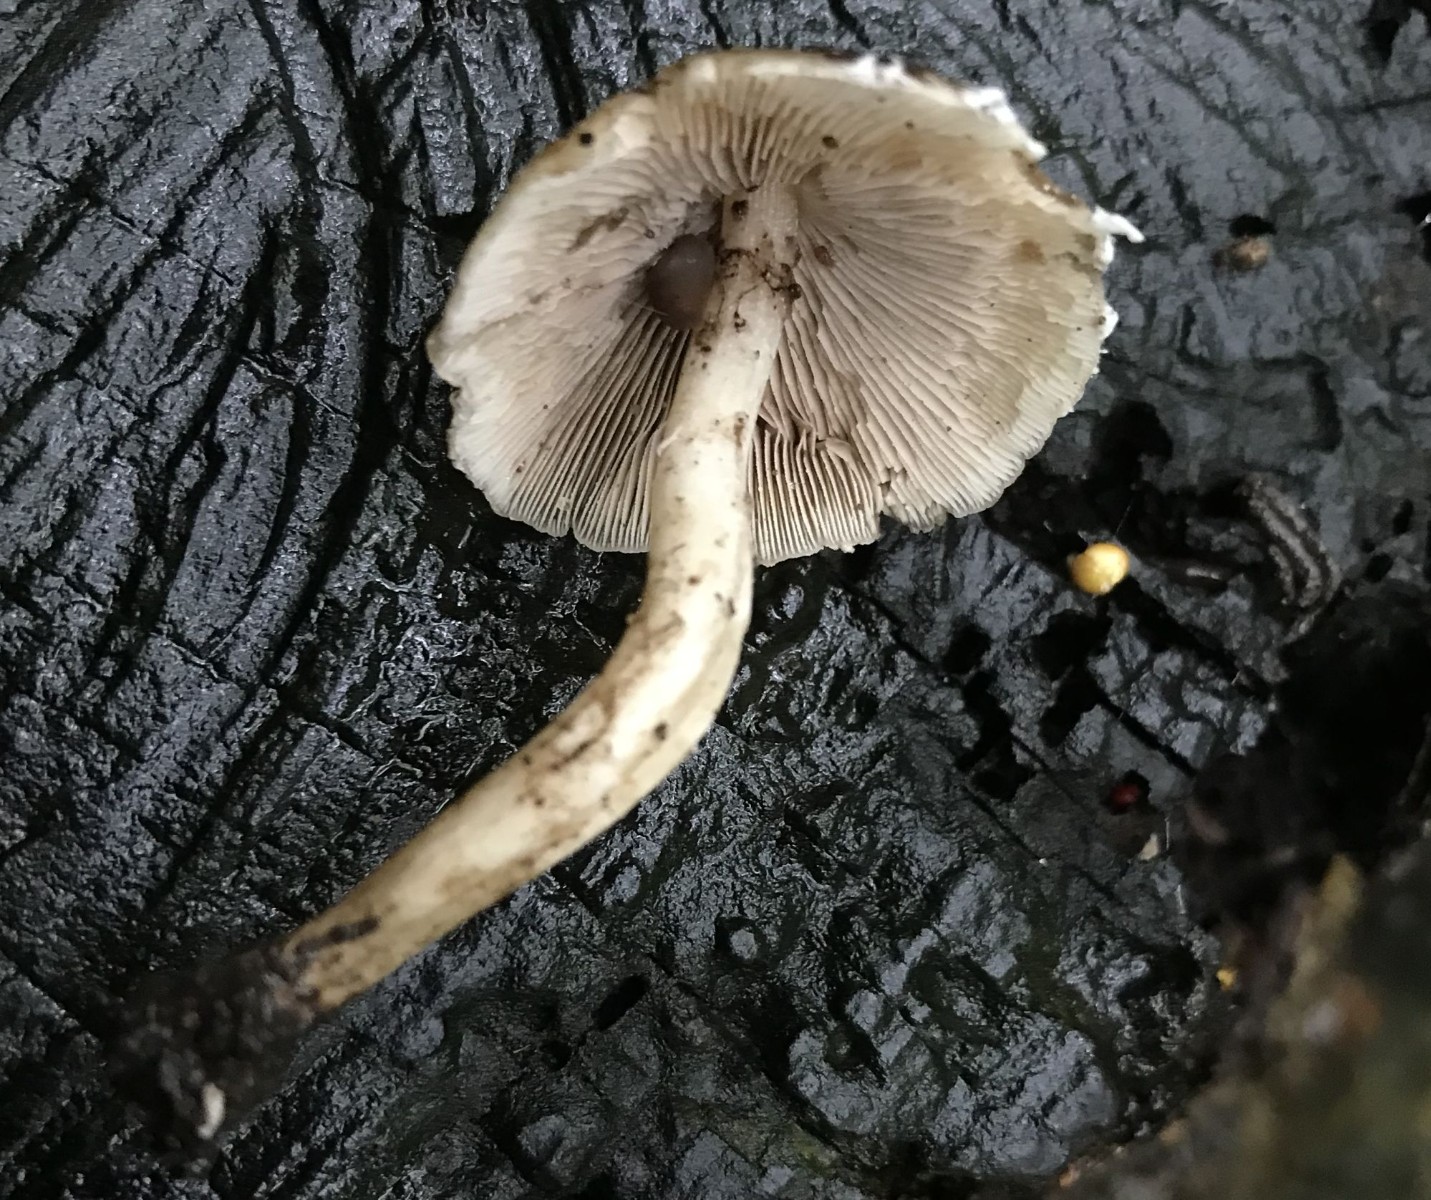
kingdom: Fungi
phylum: Basidiomycota
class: Agaricomycetes
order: Agaricales
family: Psathyrellaceae
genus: Candolleomyces
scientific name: Candolleomyces candolleanus
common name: Candolles mørkhat
